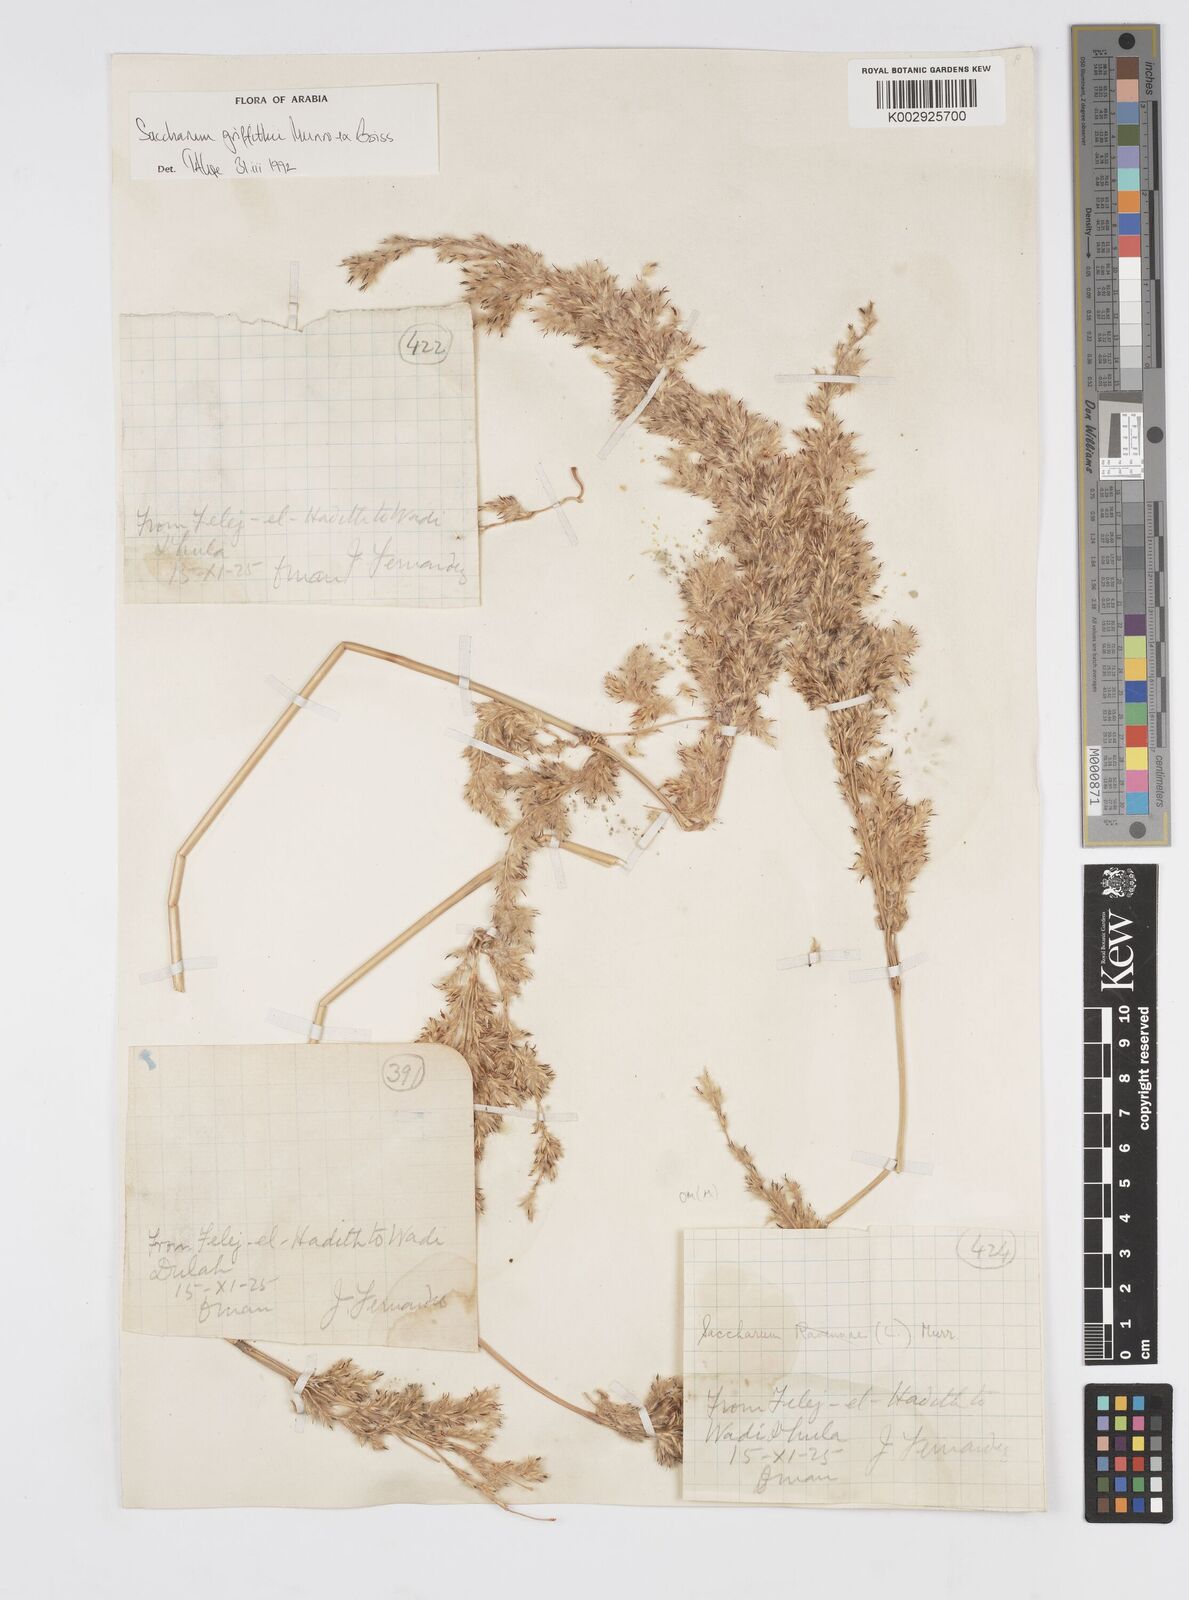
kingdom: Plantae
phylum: Tracheophyta
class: Liliopsida
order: Poales
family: Poaceae
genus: Saccharum
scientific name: Saccharum griffithii
